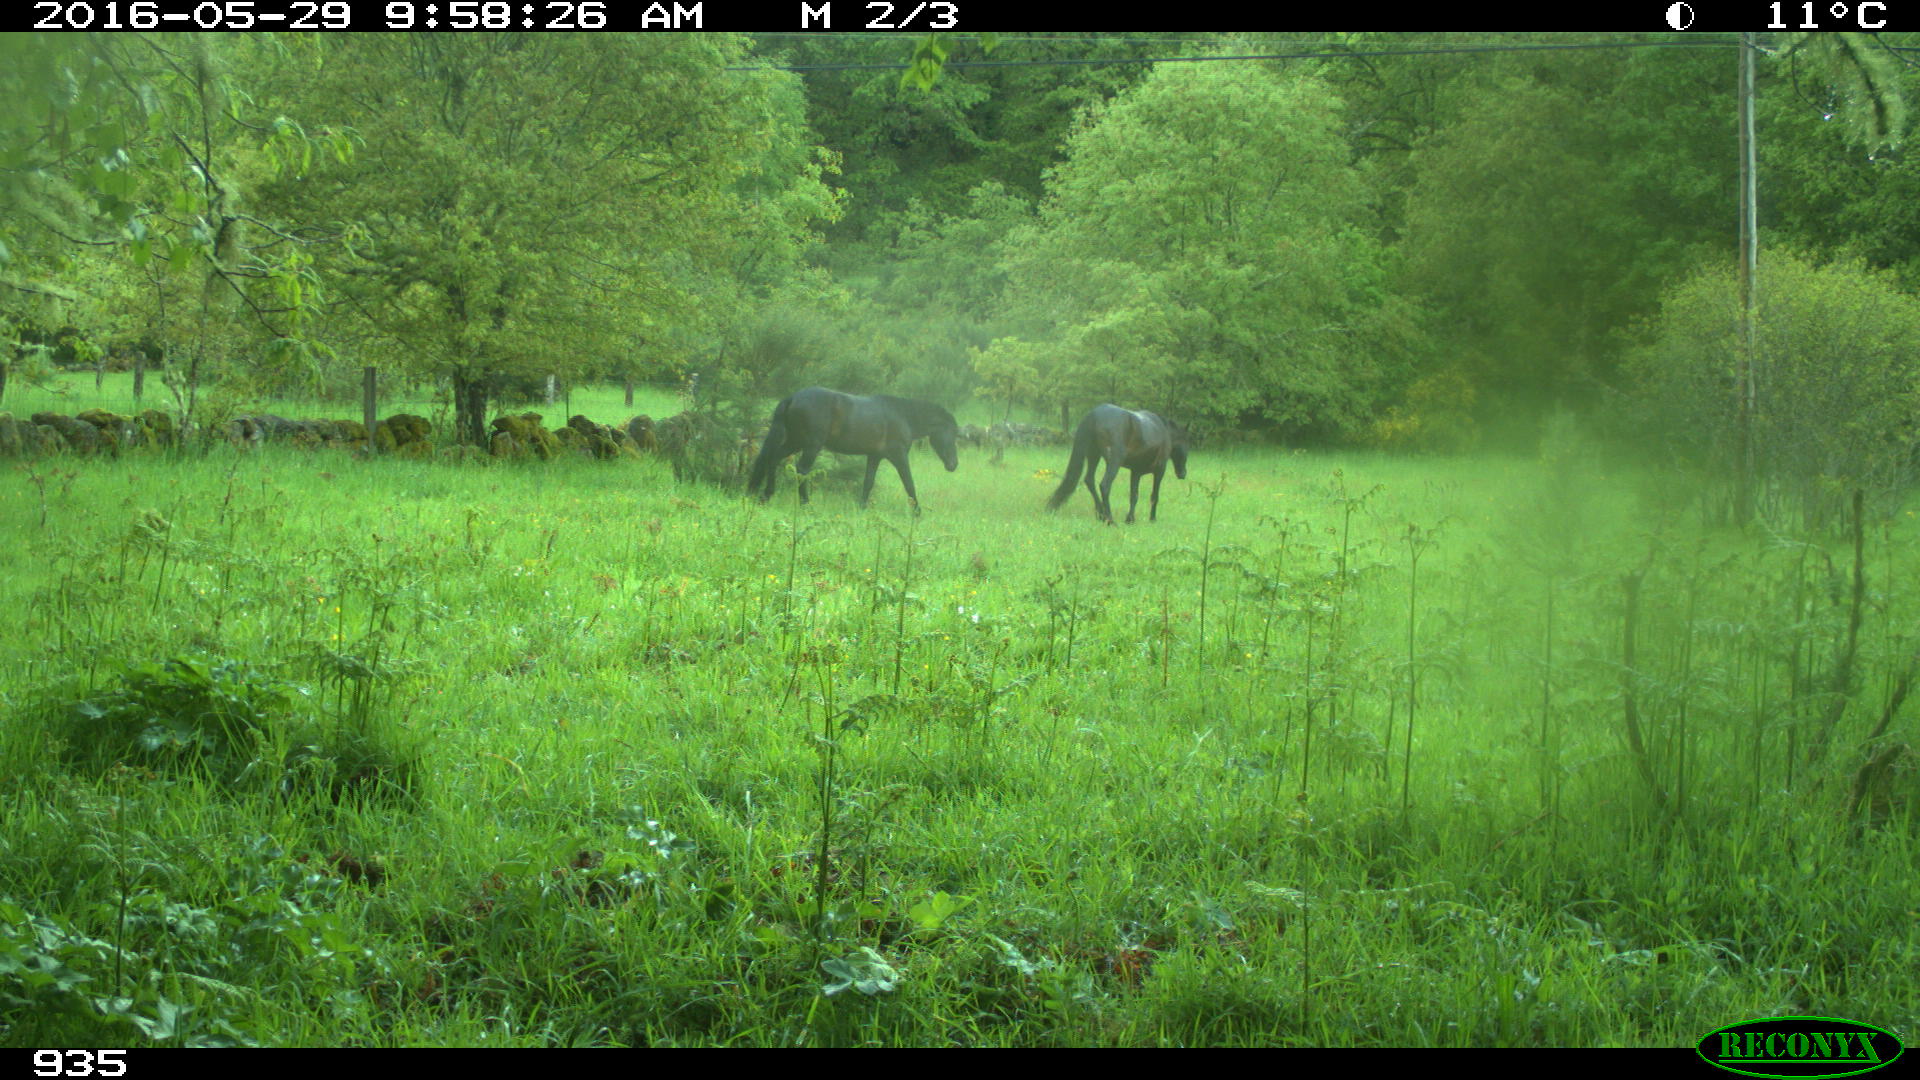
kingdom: Animalia
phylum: Chordata
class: Mammalia
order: Perissodactyla
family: Equidae
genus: Equus
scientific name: Equus caballus
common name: Horse
